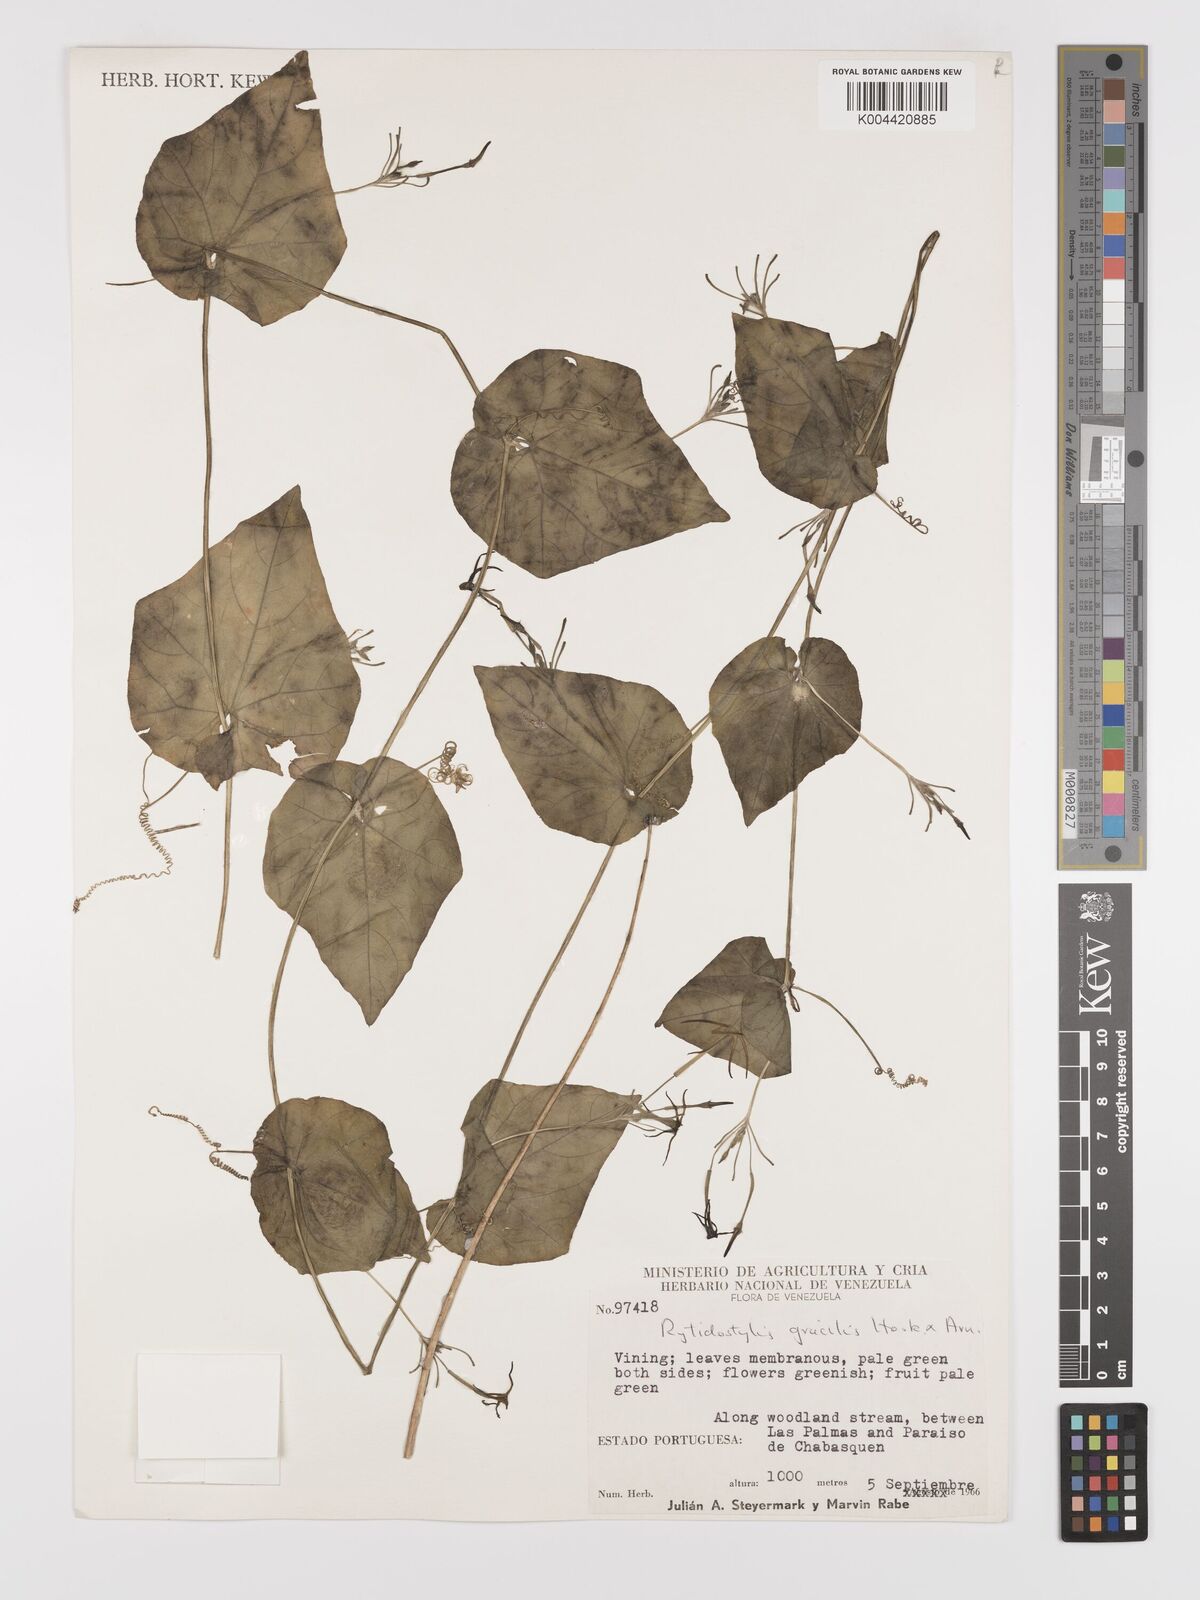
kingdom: Plantae
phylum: Tracheophyta
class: Magnoliopsida
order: Cucurbitales
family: Cucurbitaceae
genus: Cyclanthera
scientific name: Cyclanthera filiformis
